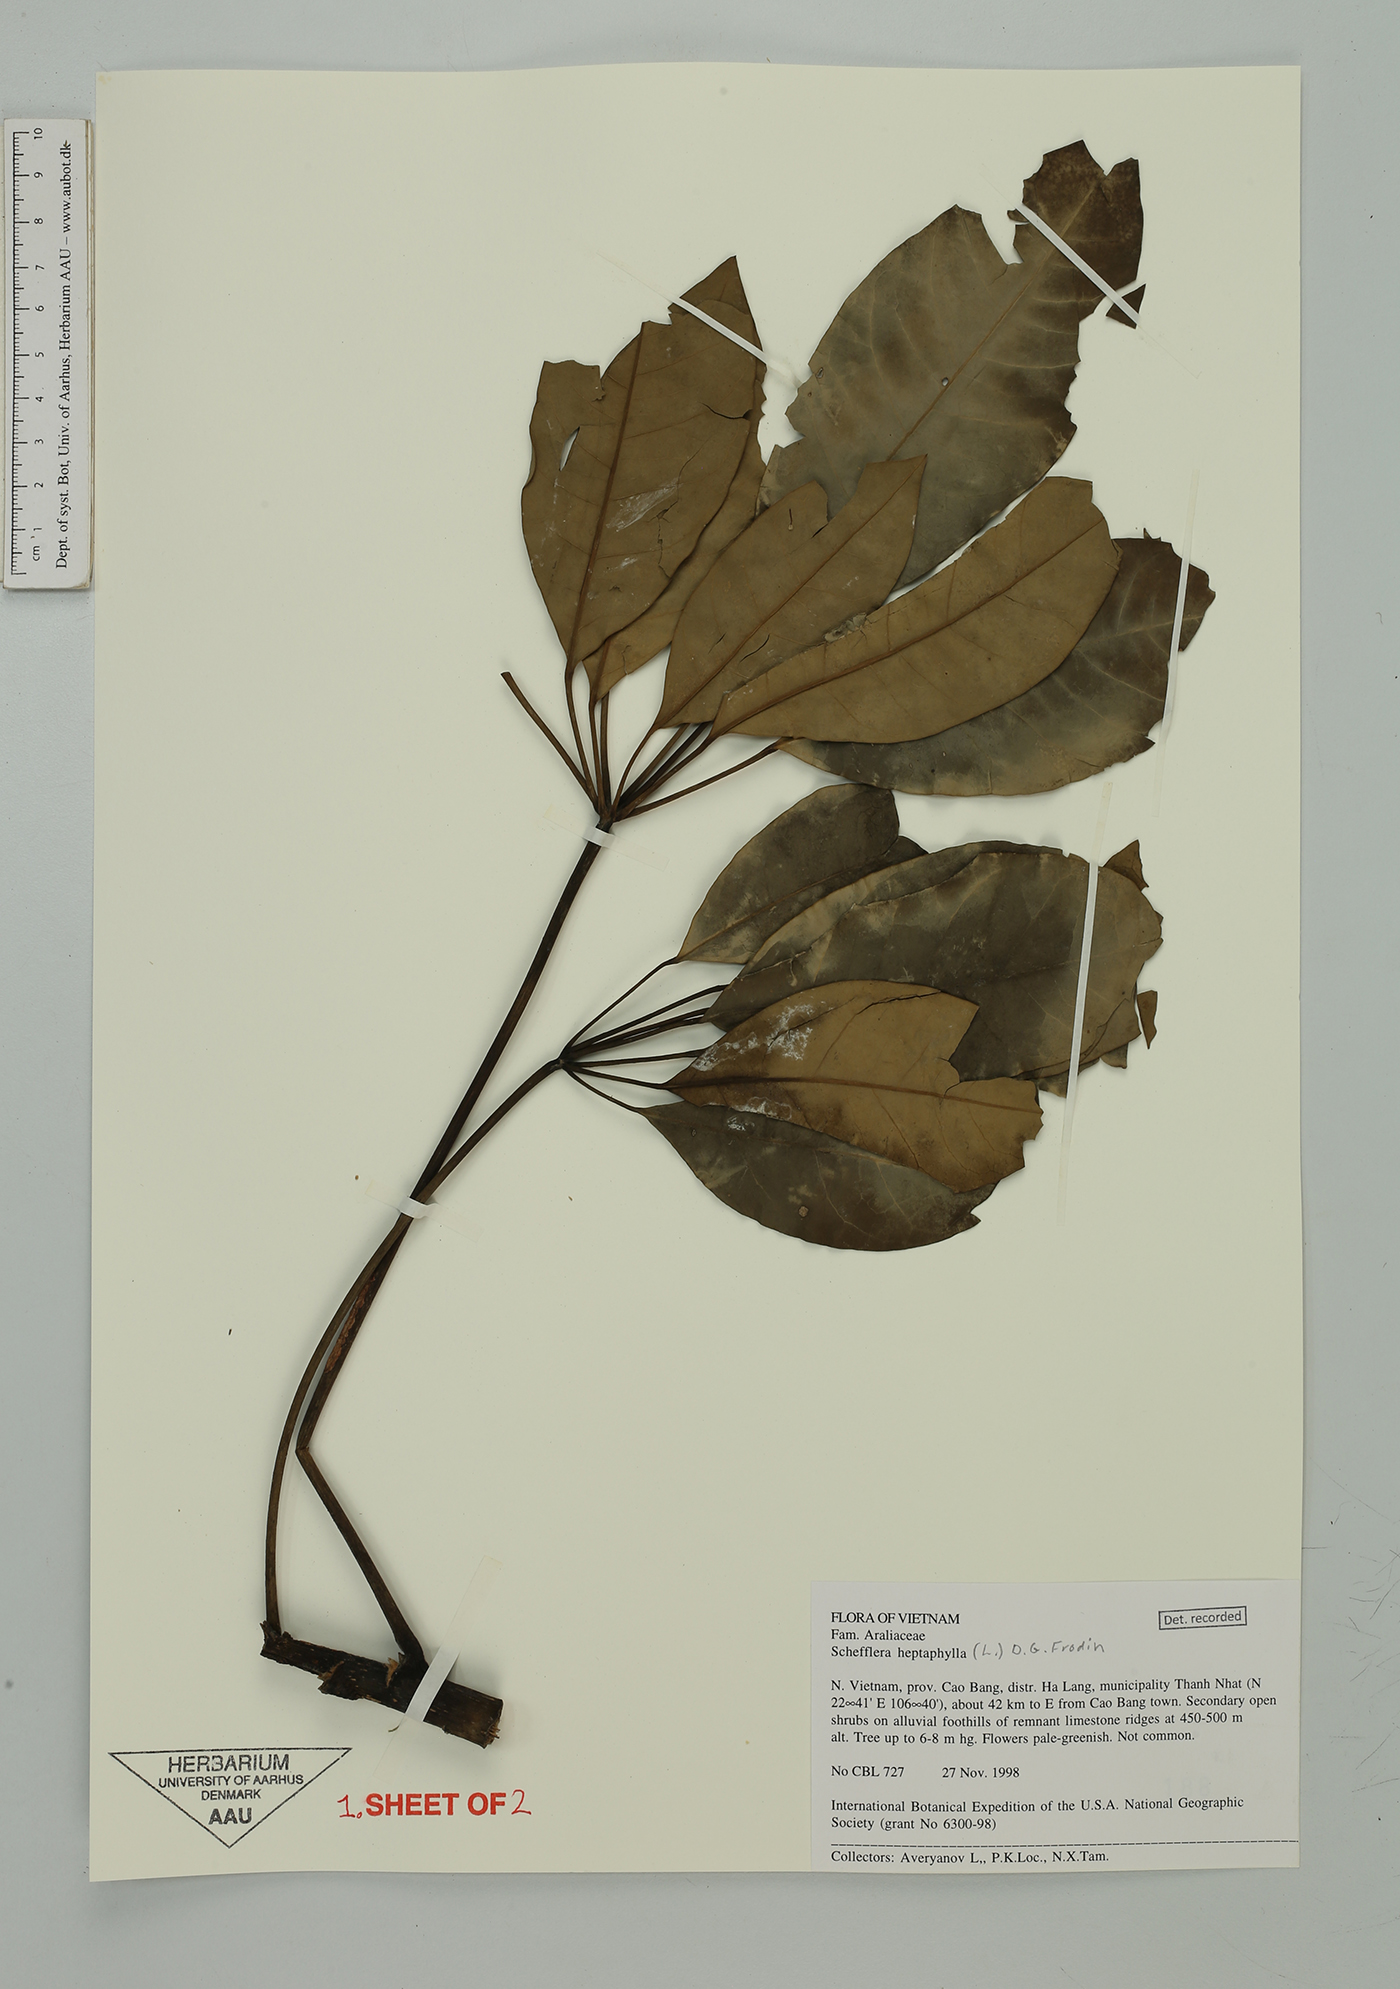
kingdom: Plantae
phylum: Tracheophyta
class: Magnoliopsida
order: Apiales
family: Araliaceae
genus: Heptapleurum
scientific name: Heptapleurum heptaphyllum
